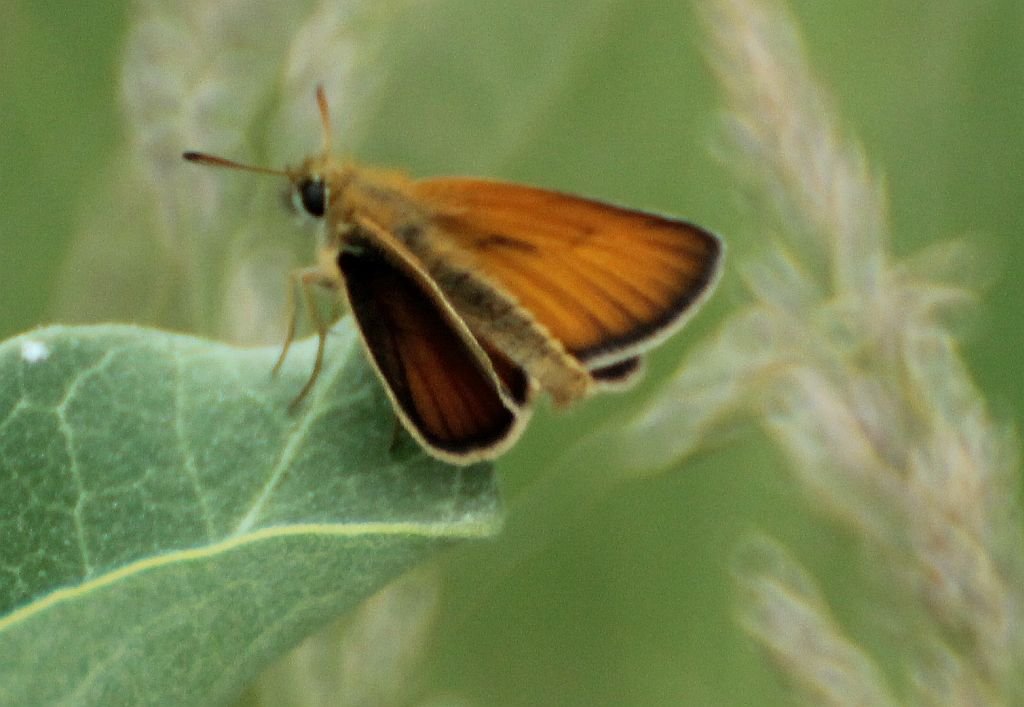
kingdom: Animalia
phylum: Arthropoda
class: Insecta
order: Lepidoptera
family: Hesperiidae
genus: Thymelicus
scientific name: Thymelicus lineola
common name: European Skipper
